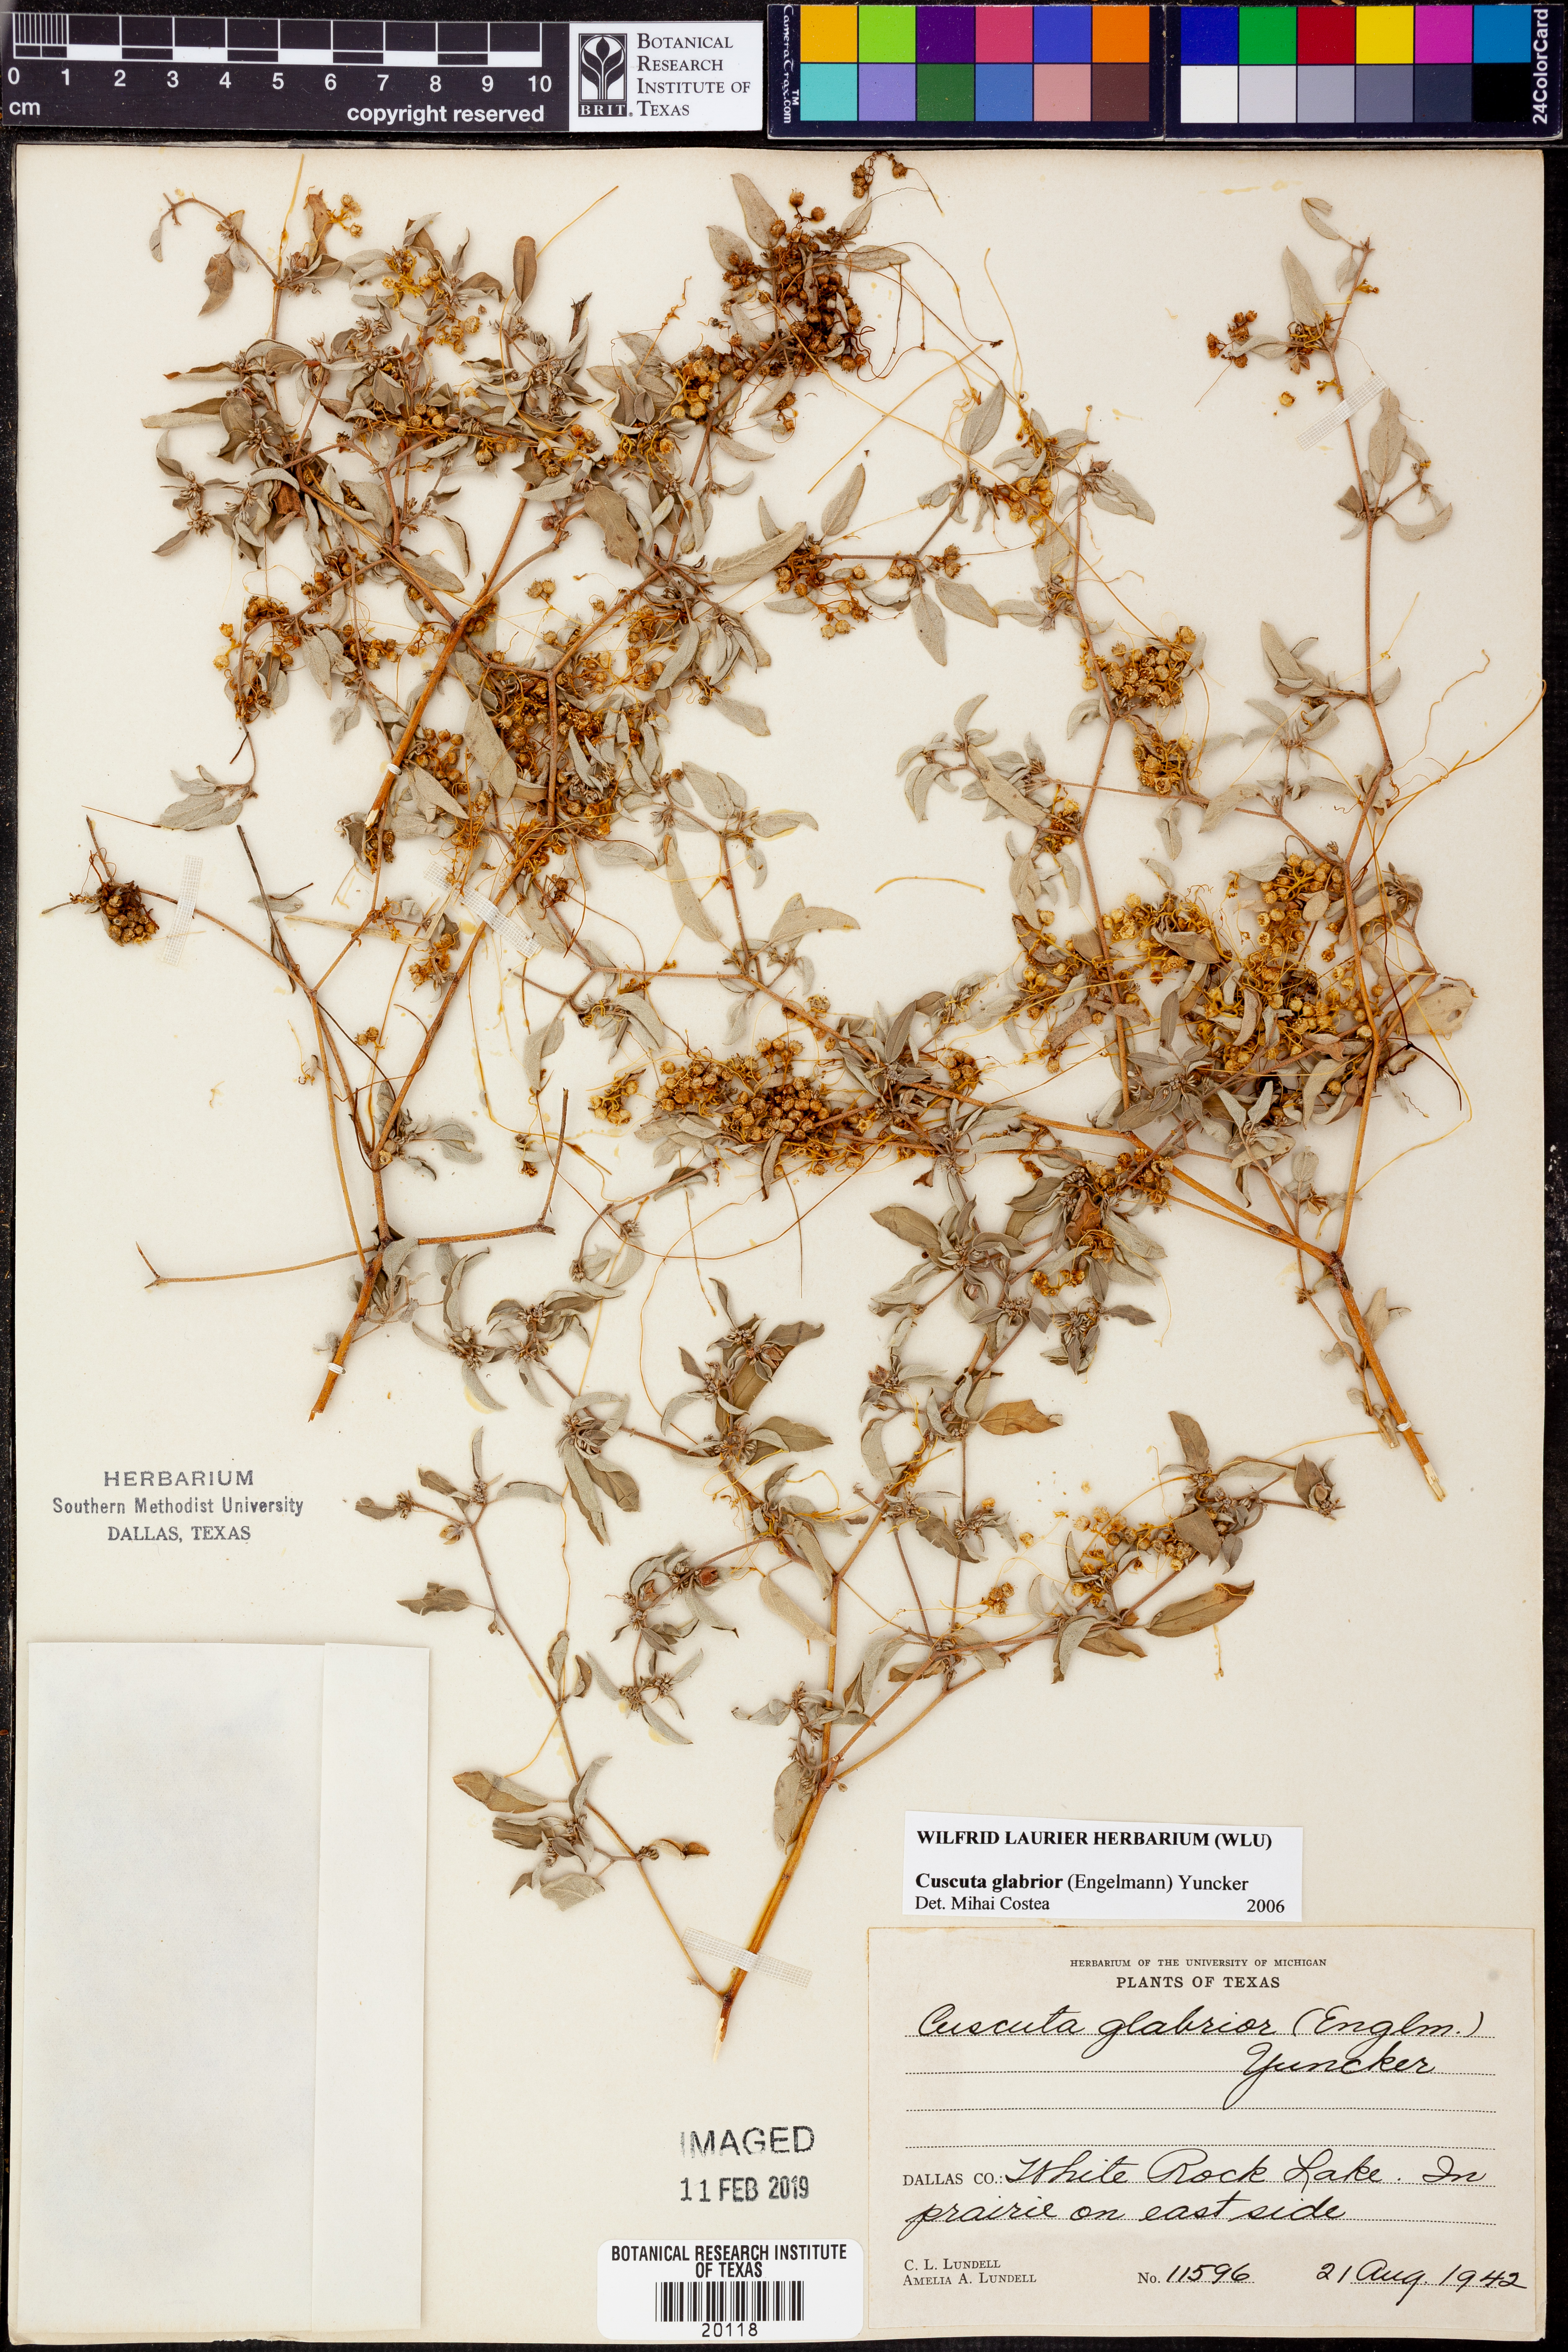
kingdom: Plantae
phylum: Tracheophyta
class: Magnoliopsida
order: Solanales
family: Convolvulaceae
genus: Cuscuta
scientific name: Cuscuta glabrior
